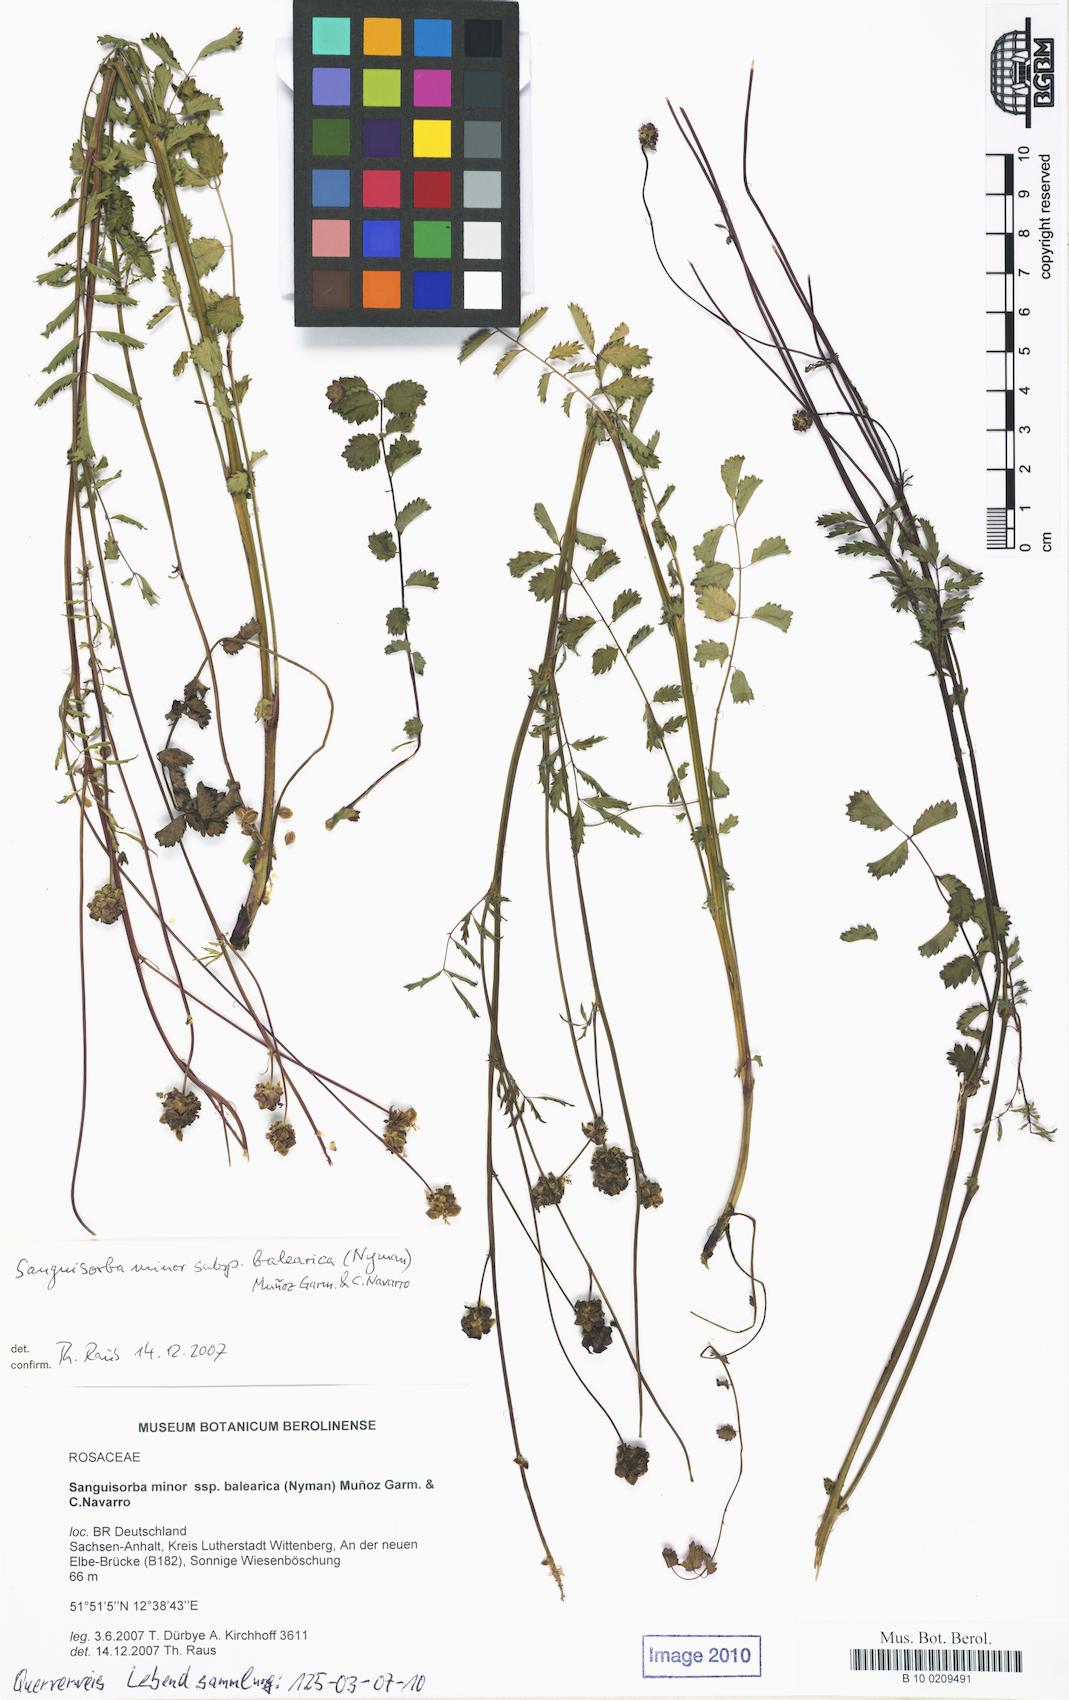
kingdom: Plantae
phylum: Tracheophyta
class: Magnoliopsida
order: Rosales
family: Rosaceae
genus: Poterium
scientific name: Poterium sanguisorba
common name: Salad burnet
